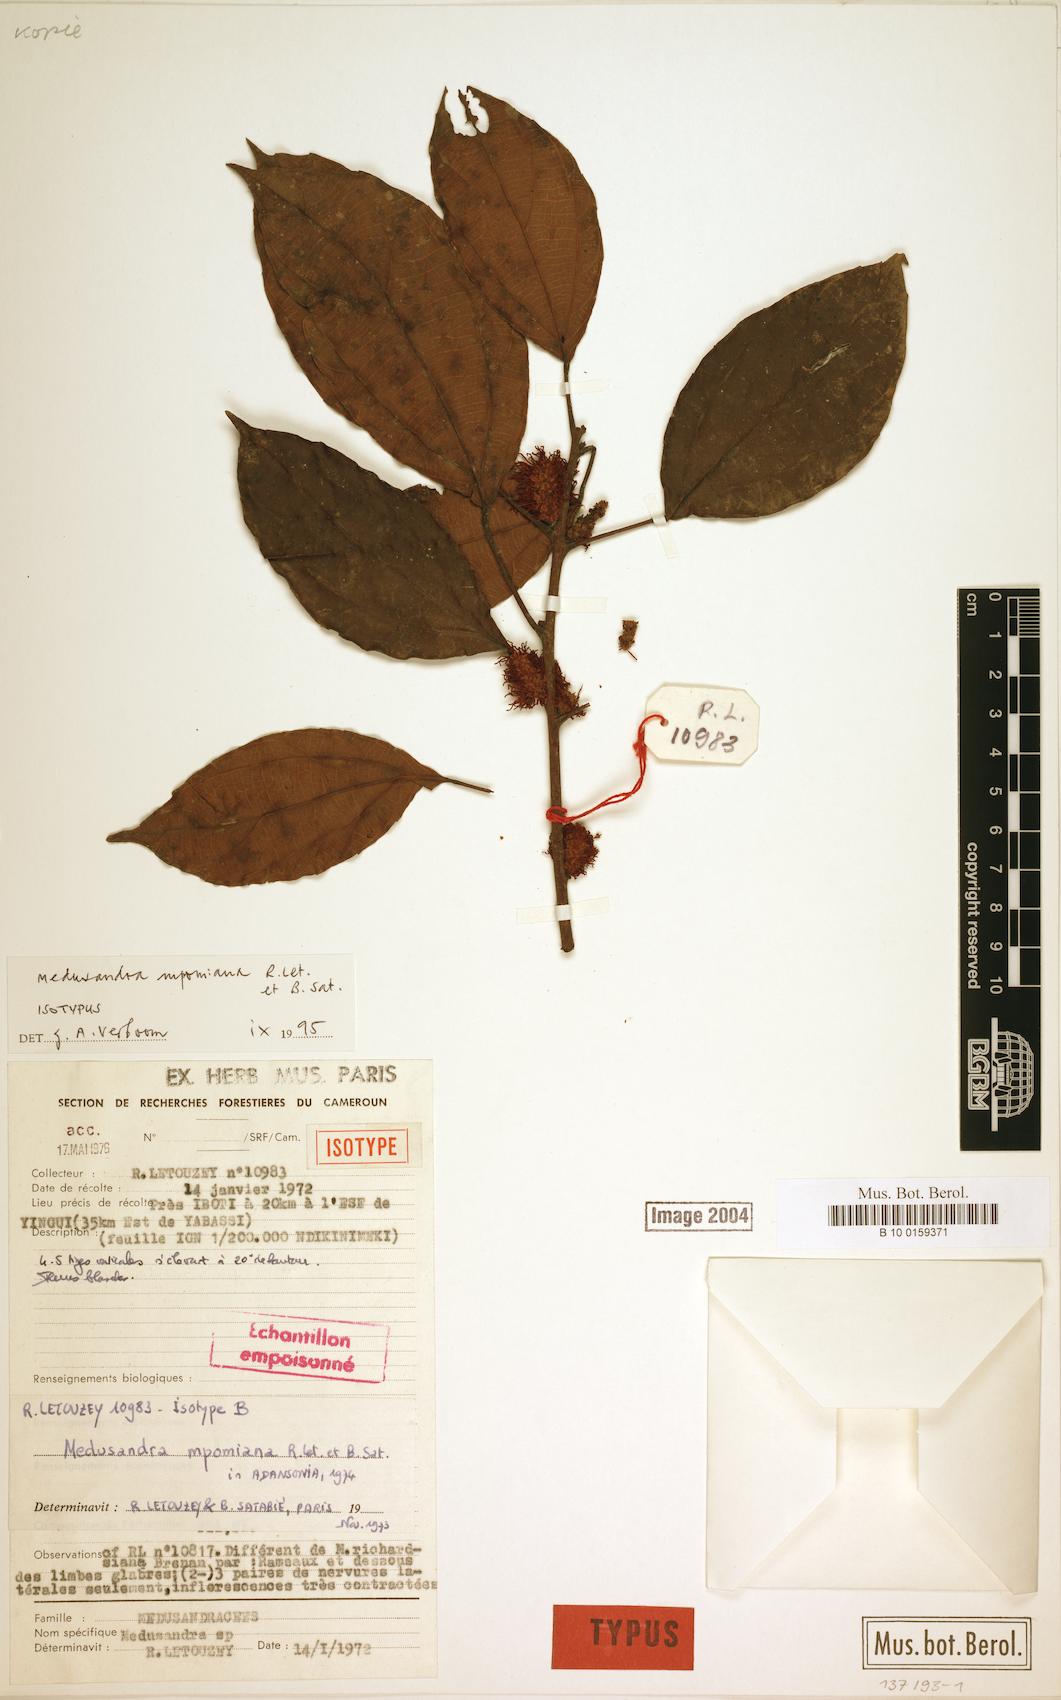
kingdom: Plantae
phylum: Tracheophyta
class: Magnoliopsida
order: Saxifragales
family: Peridiscaceae
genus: Medusandra
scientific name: Medusandra mpomiana
